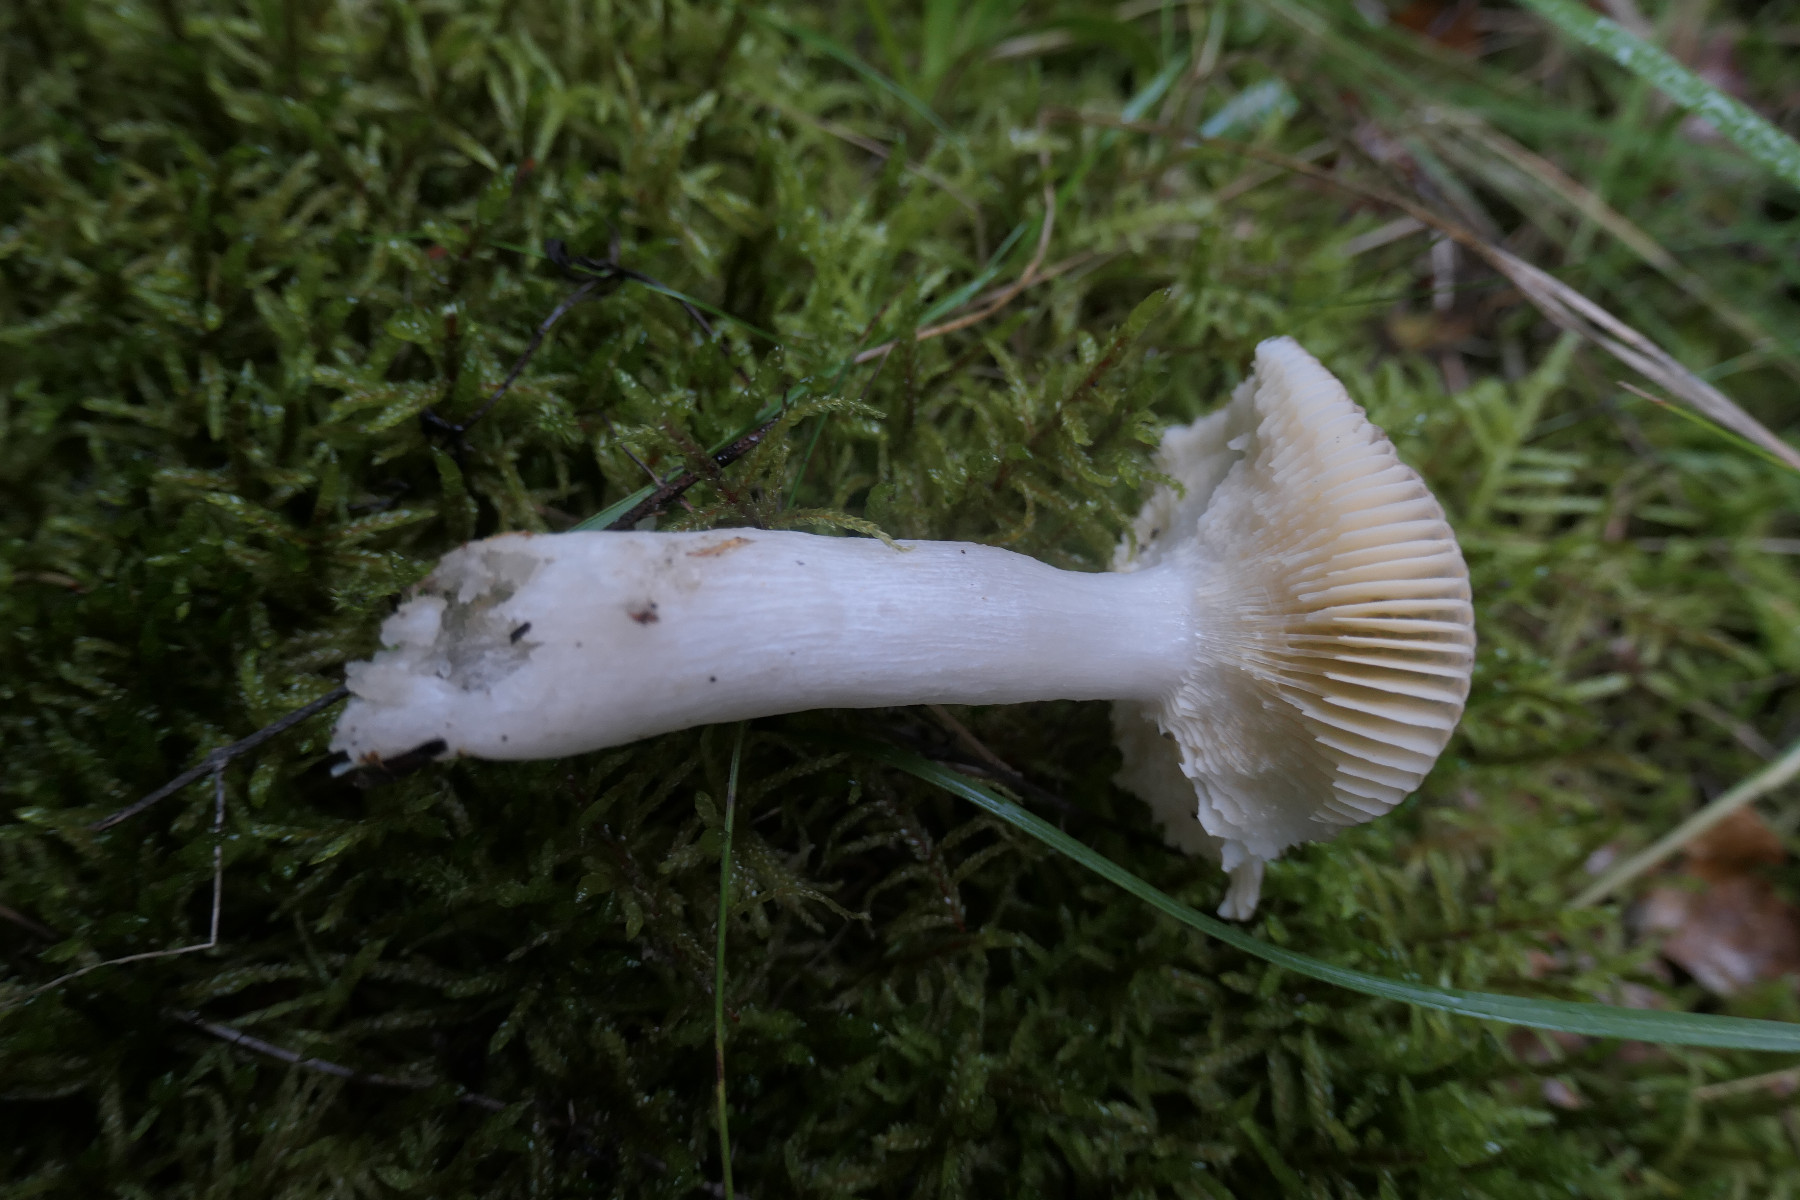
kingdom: Fungi
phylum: Basidiomycota
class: Agaricomycetes
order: Russulales
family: Russulaceae
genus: Russula
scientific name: Russula nauseosa
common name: spinkel skørhat
